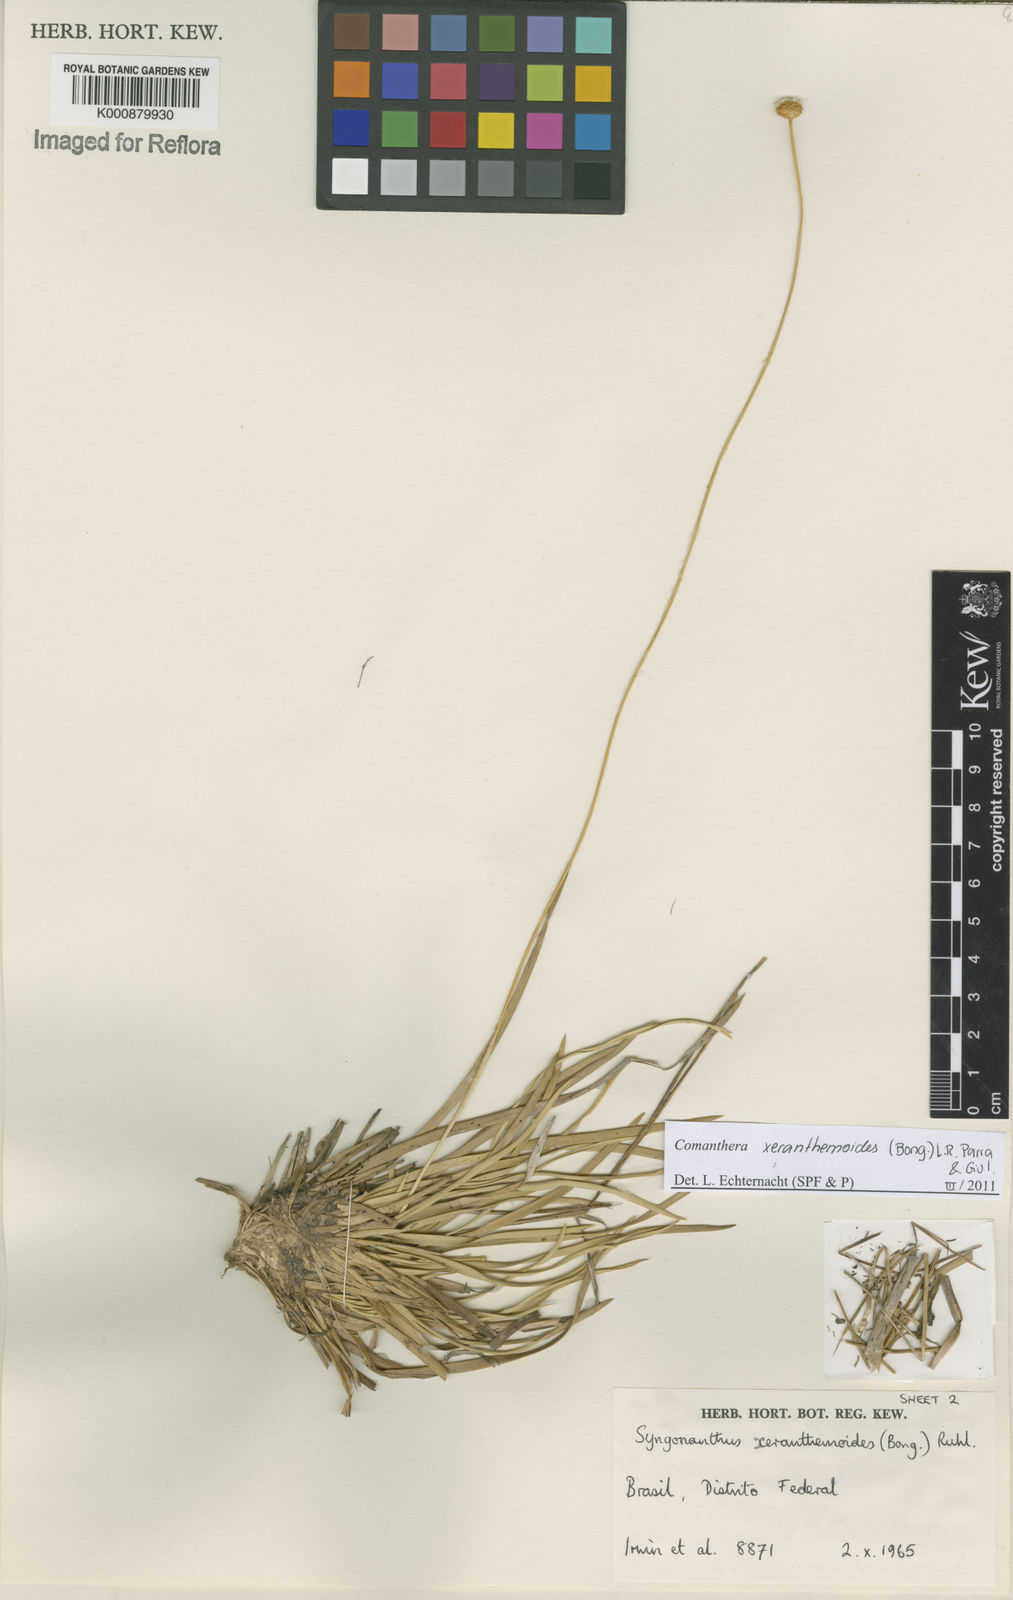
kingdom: Plantae
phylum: Tracheophyta
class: Liliopsida
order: Poales
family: Eriocaulaceae
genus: Comanthera
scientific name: Comanthera xeranthemoides
